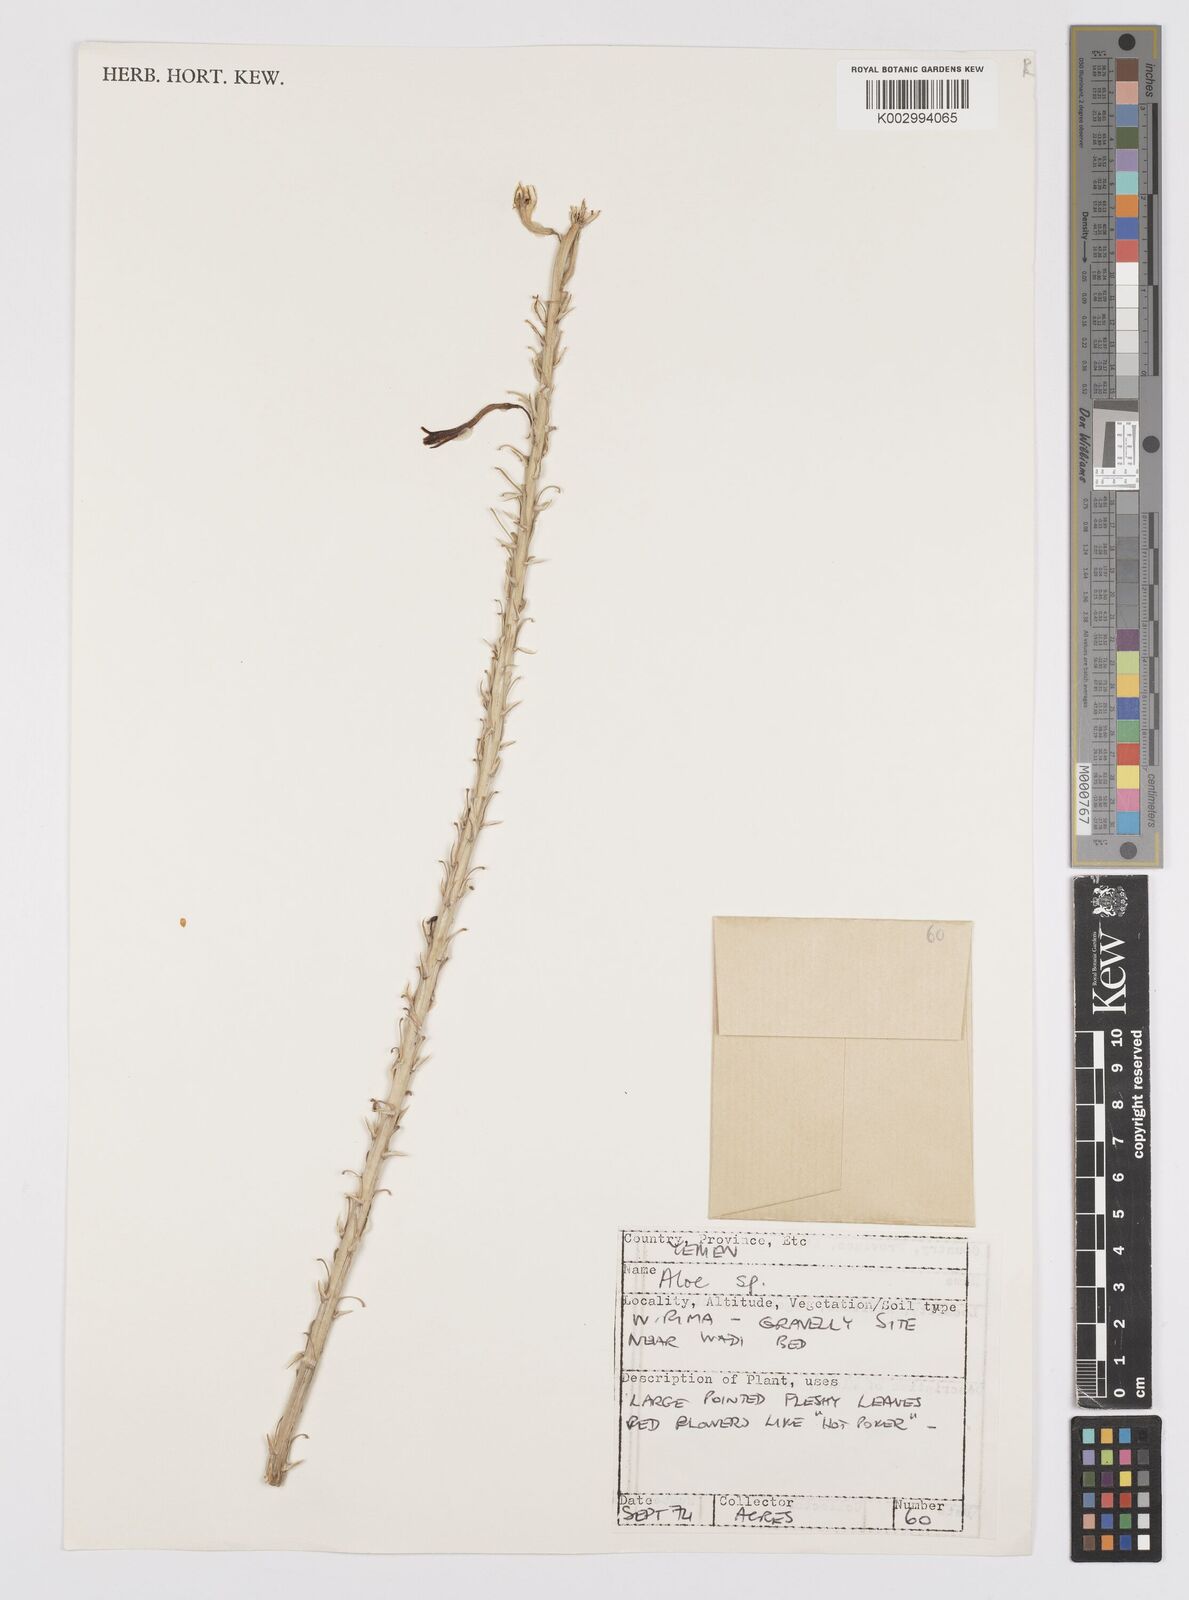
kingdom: Plantae
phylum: Tracheophyta
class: Liliopsida
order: Asparagales
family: Asphodelaceae
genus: Aloe
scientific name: Aloe officinalis
